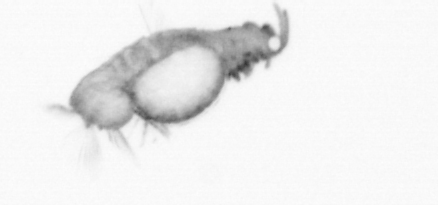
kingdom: Animalia
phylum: Annelida
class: Polychaeta
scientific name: Polychaeta
